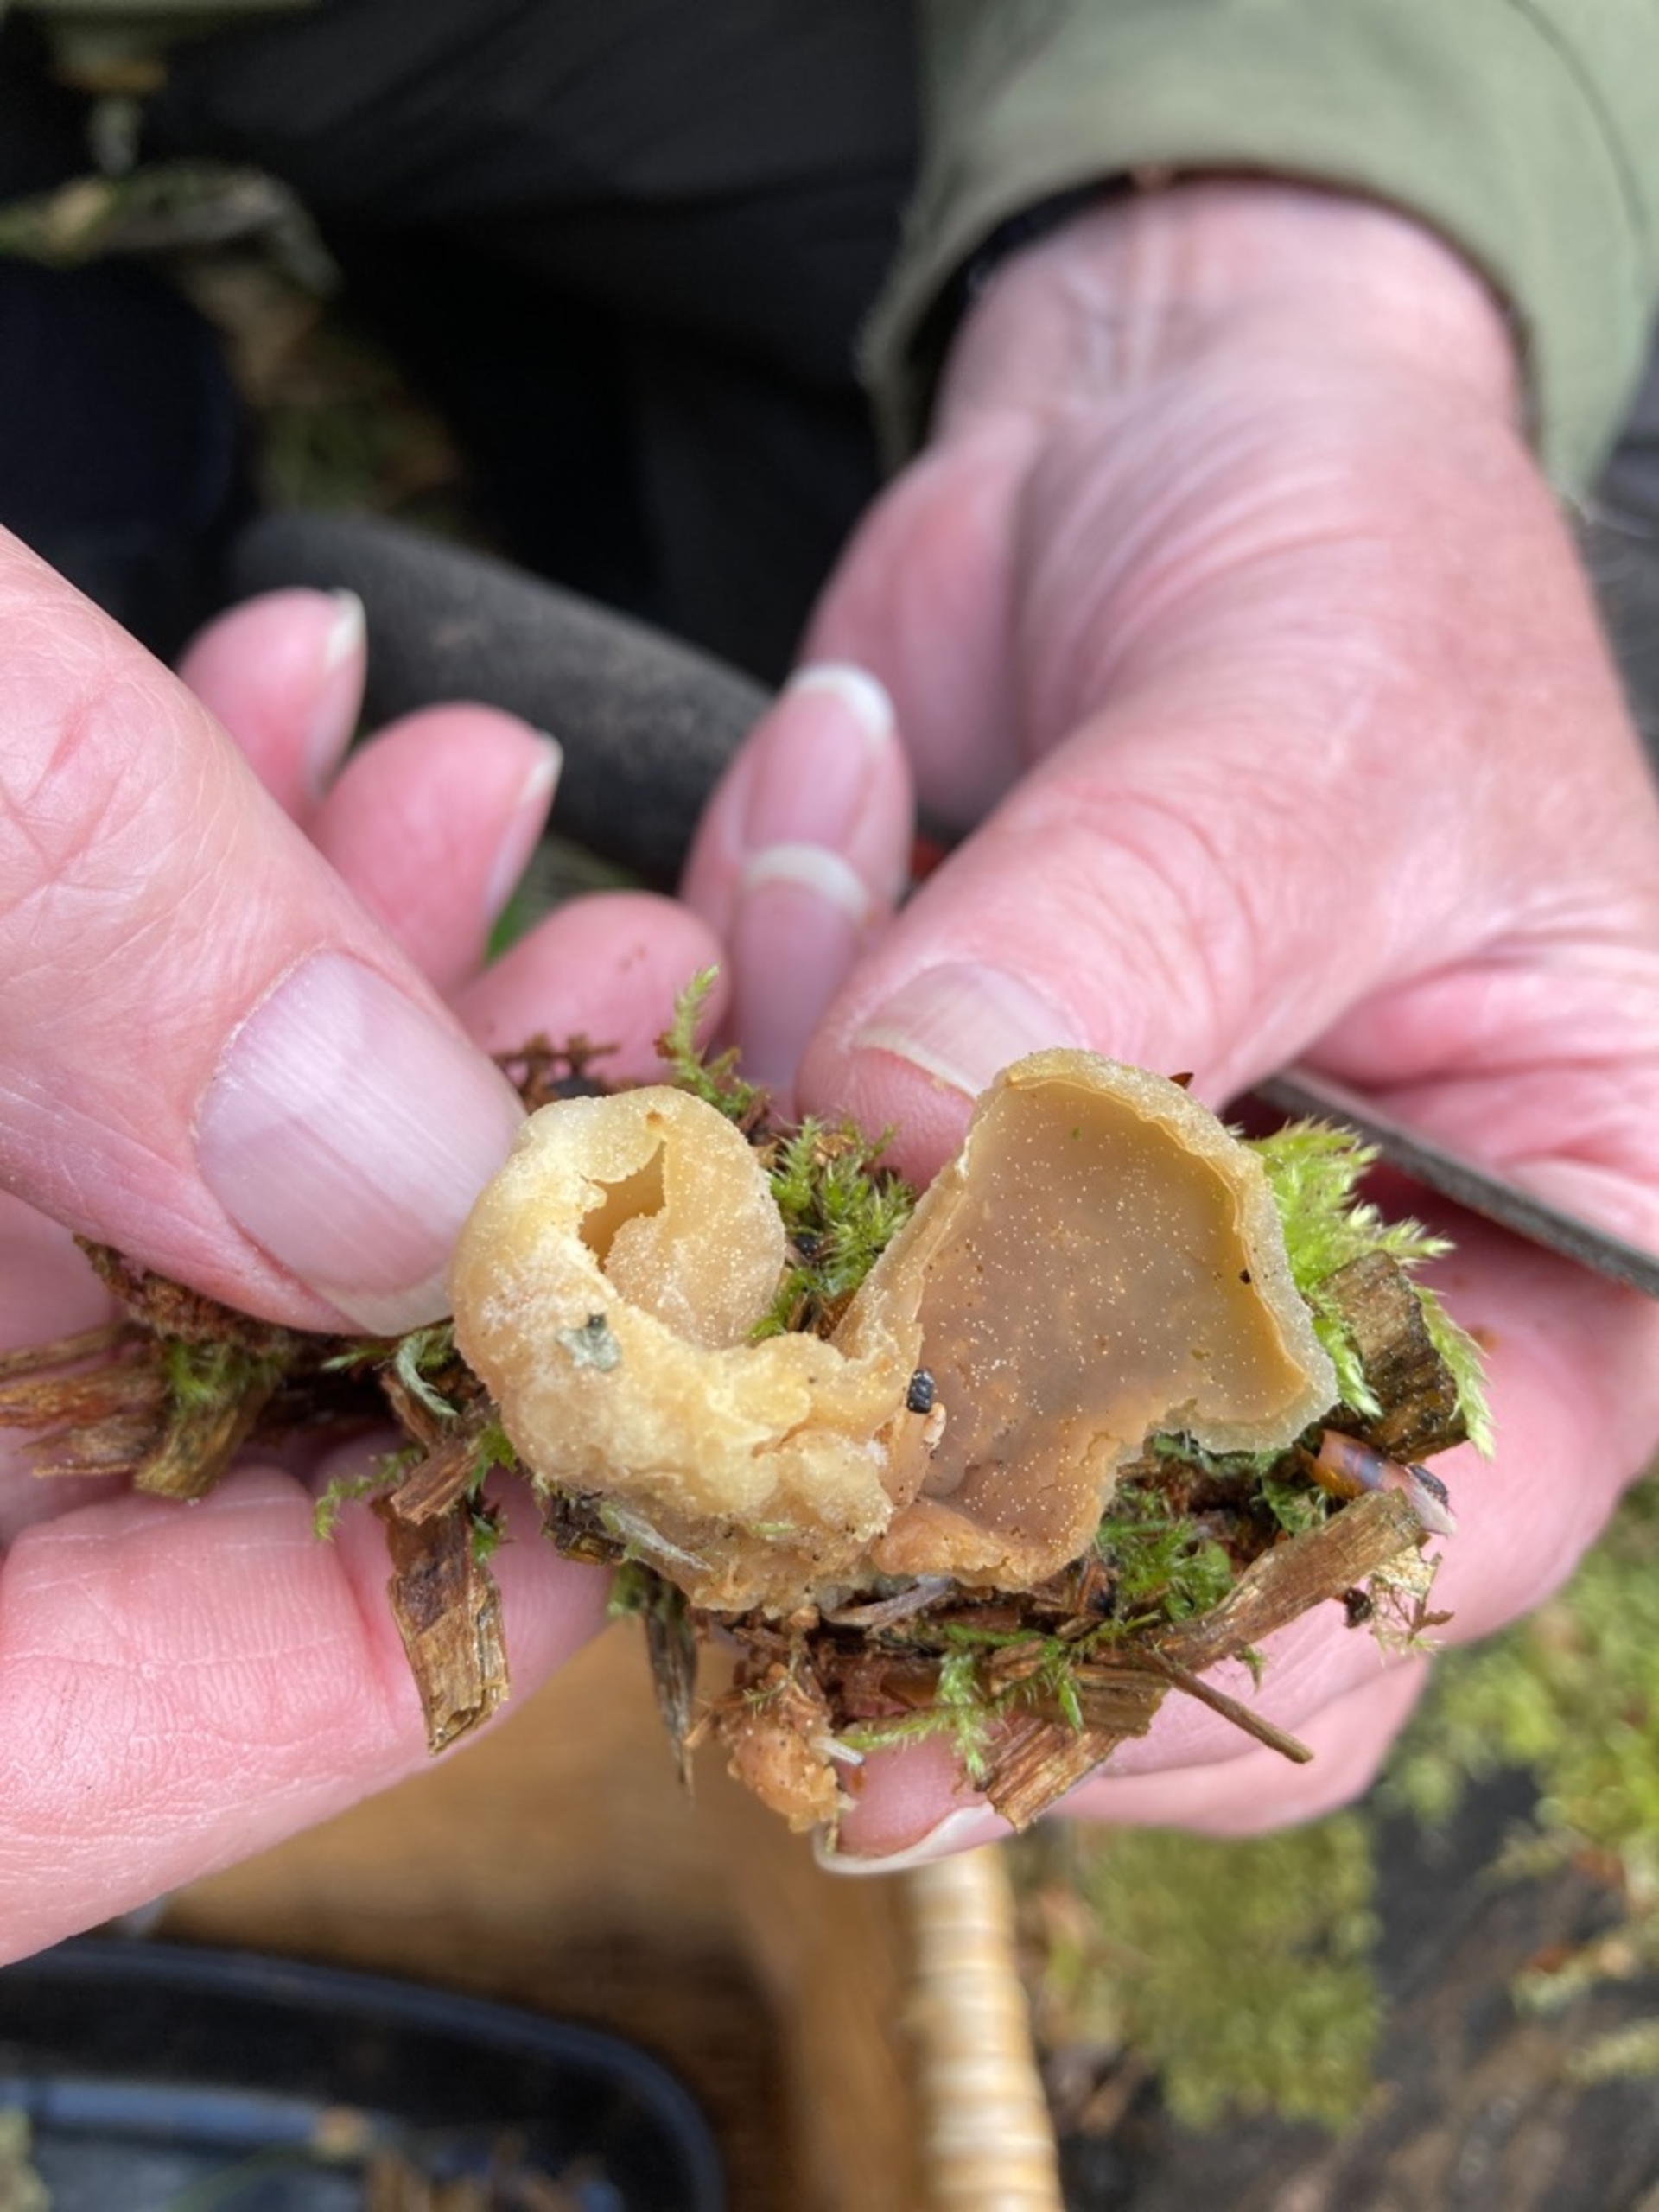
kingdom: Fungi
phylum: Ascomycota
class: Pezizomycetes
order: Pezizales
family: Pezizaceae
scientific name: Pezizaceae
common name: Bægersvampfamilien
